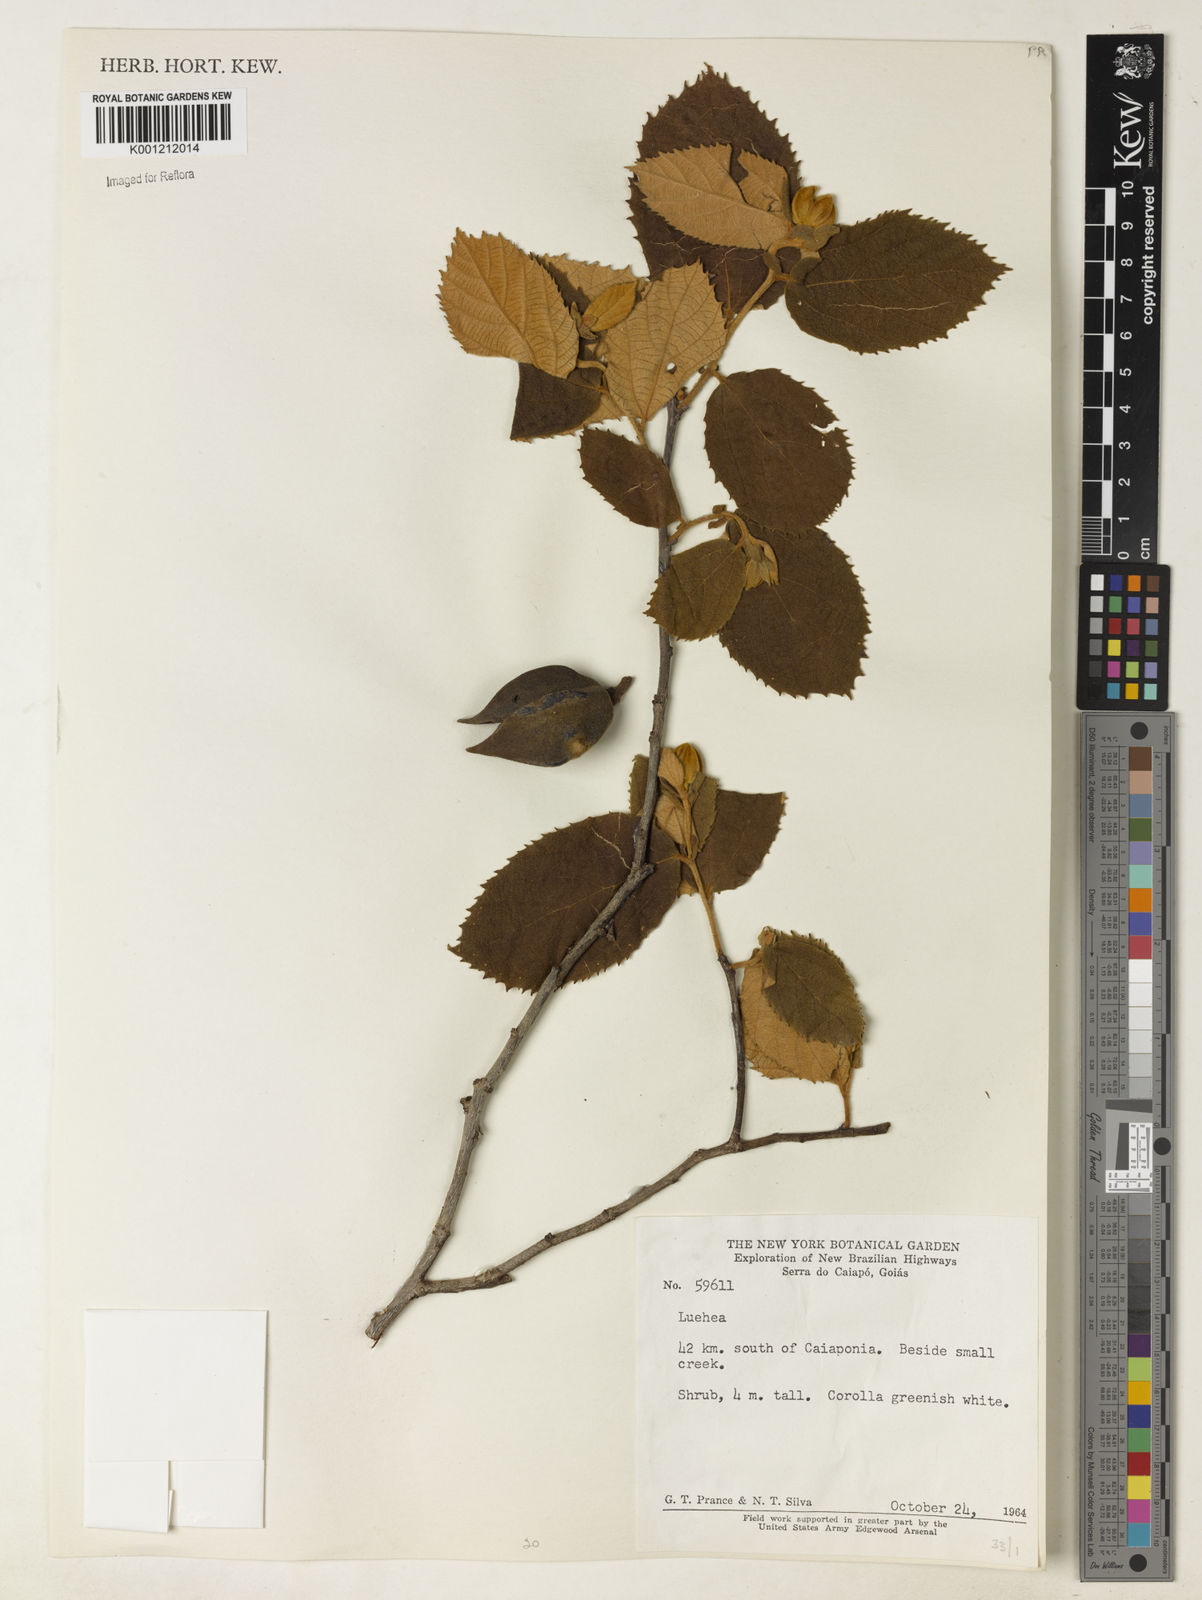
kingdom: Plantae
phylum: Tracheophyta
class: Magnoliopsida
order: Malvales
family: Malvaceae
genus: Luehea
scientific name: Luehea
